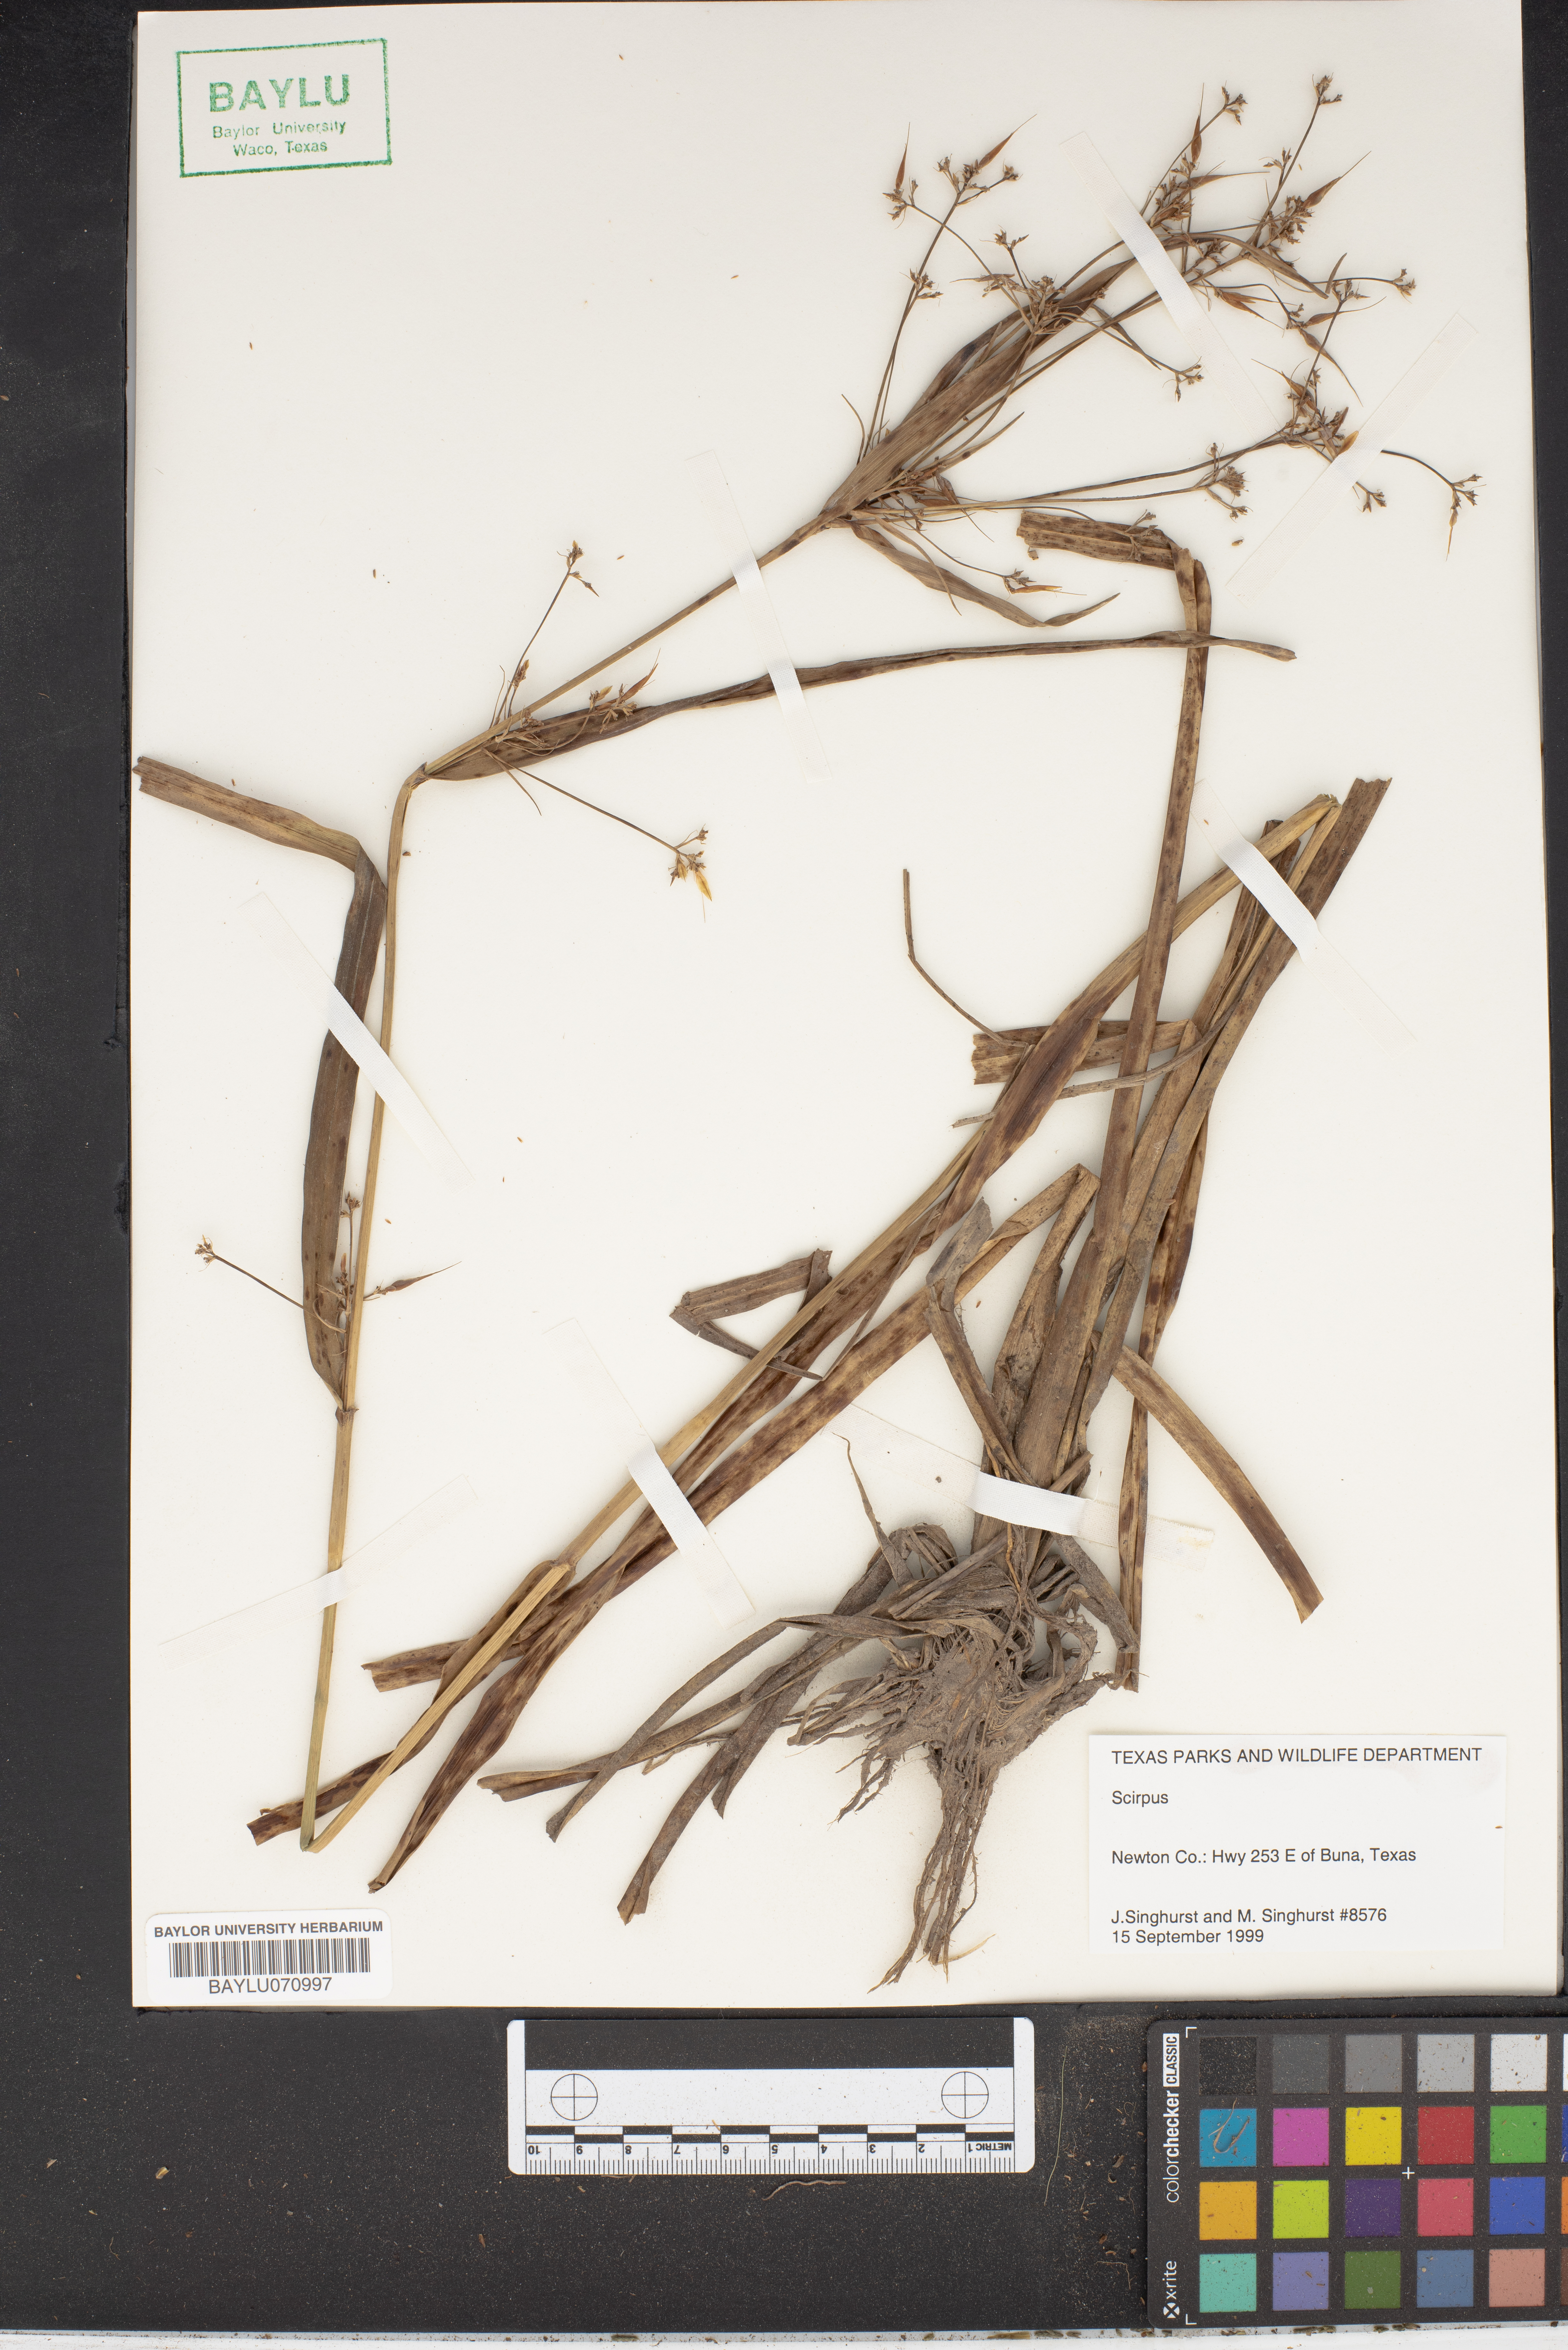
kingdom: Plantae
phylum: Tracheophyta
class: Liliopsida
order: Poales
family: Cyperaceae
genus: Scirpus
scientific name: Scirpus
